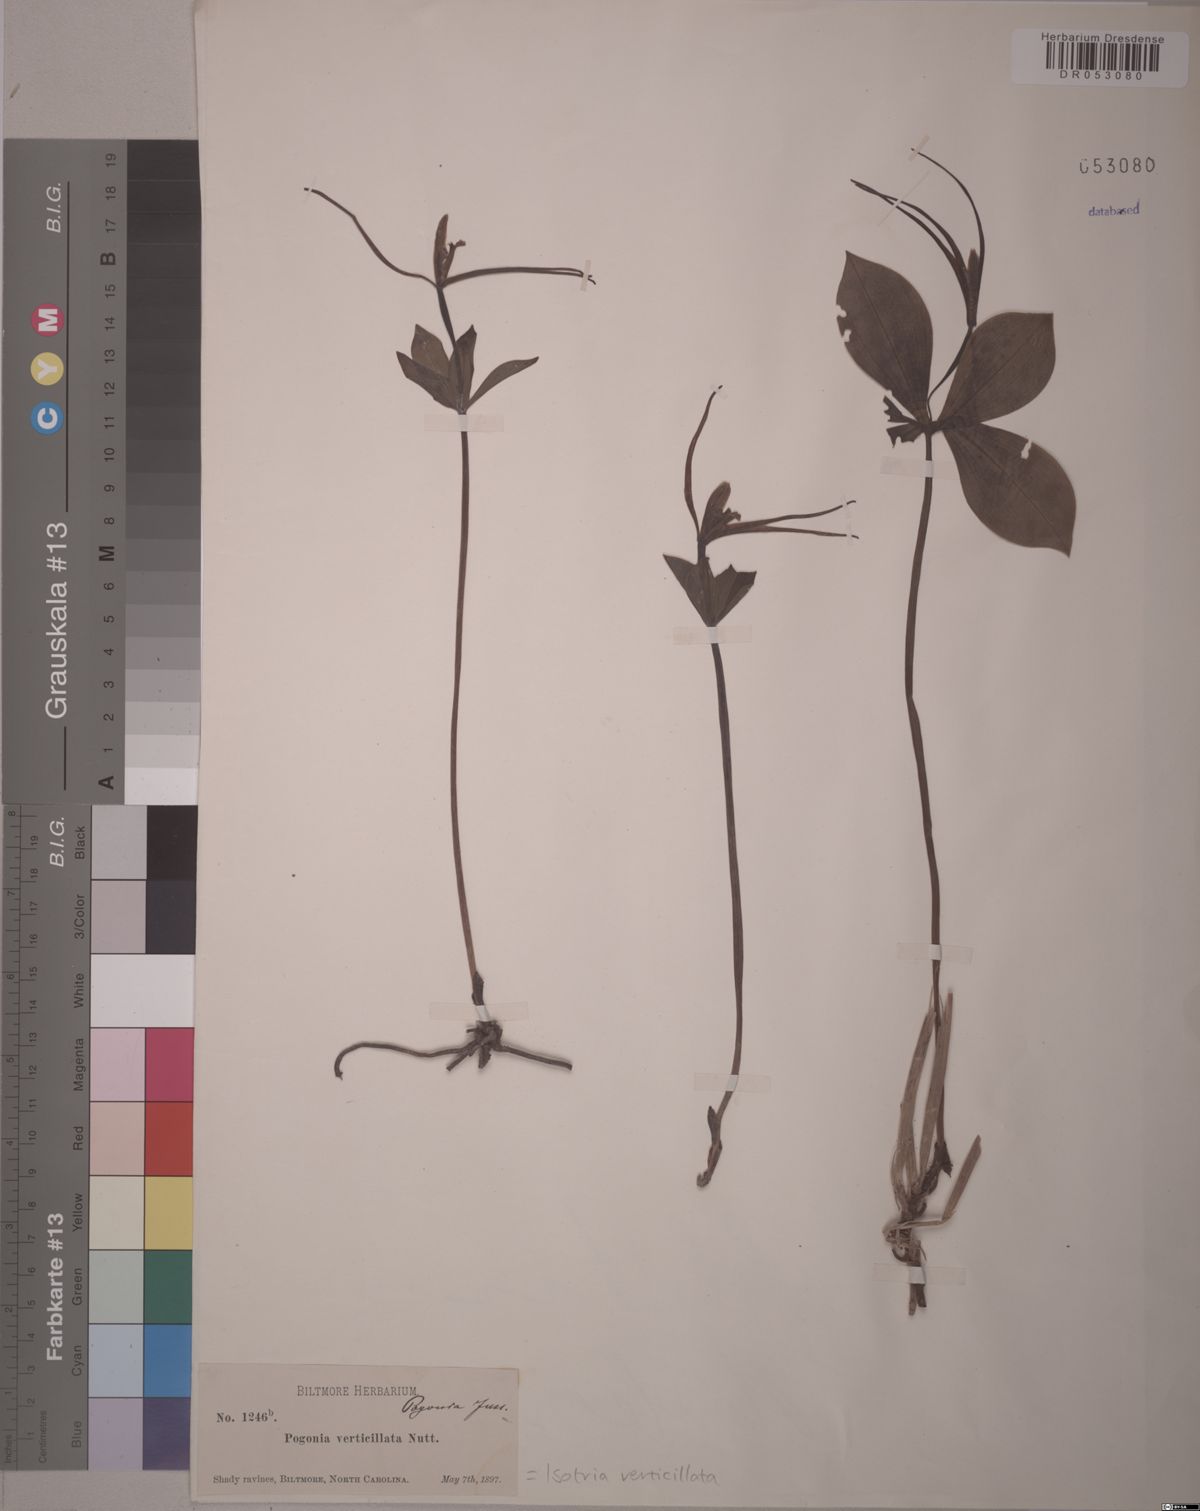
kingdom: Plantae
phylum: Tracheophyta
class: Liliopsida
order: Asparagales
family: Orchidaceae
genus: Isotria
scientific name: Isotria verticillata
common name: Large whorled pogonia
